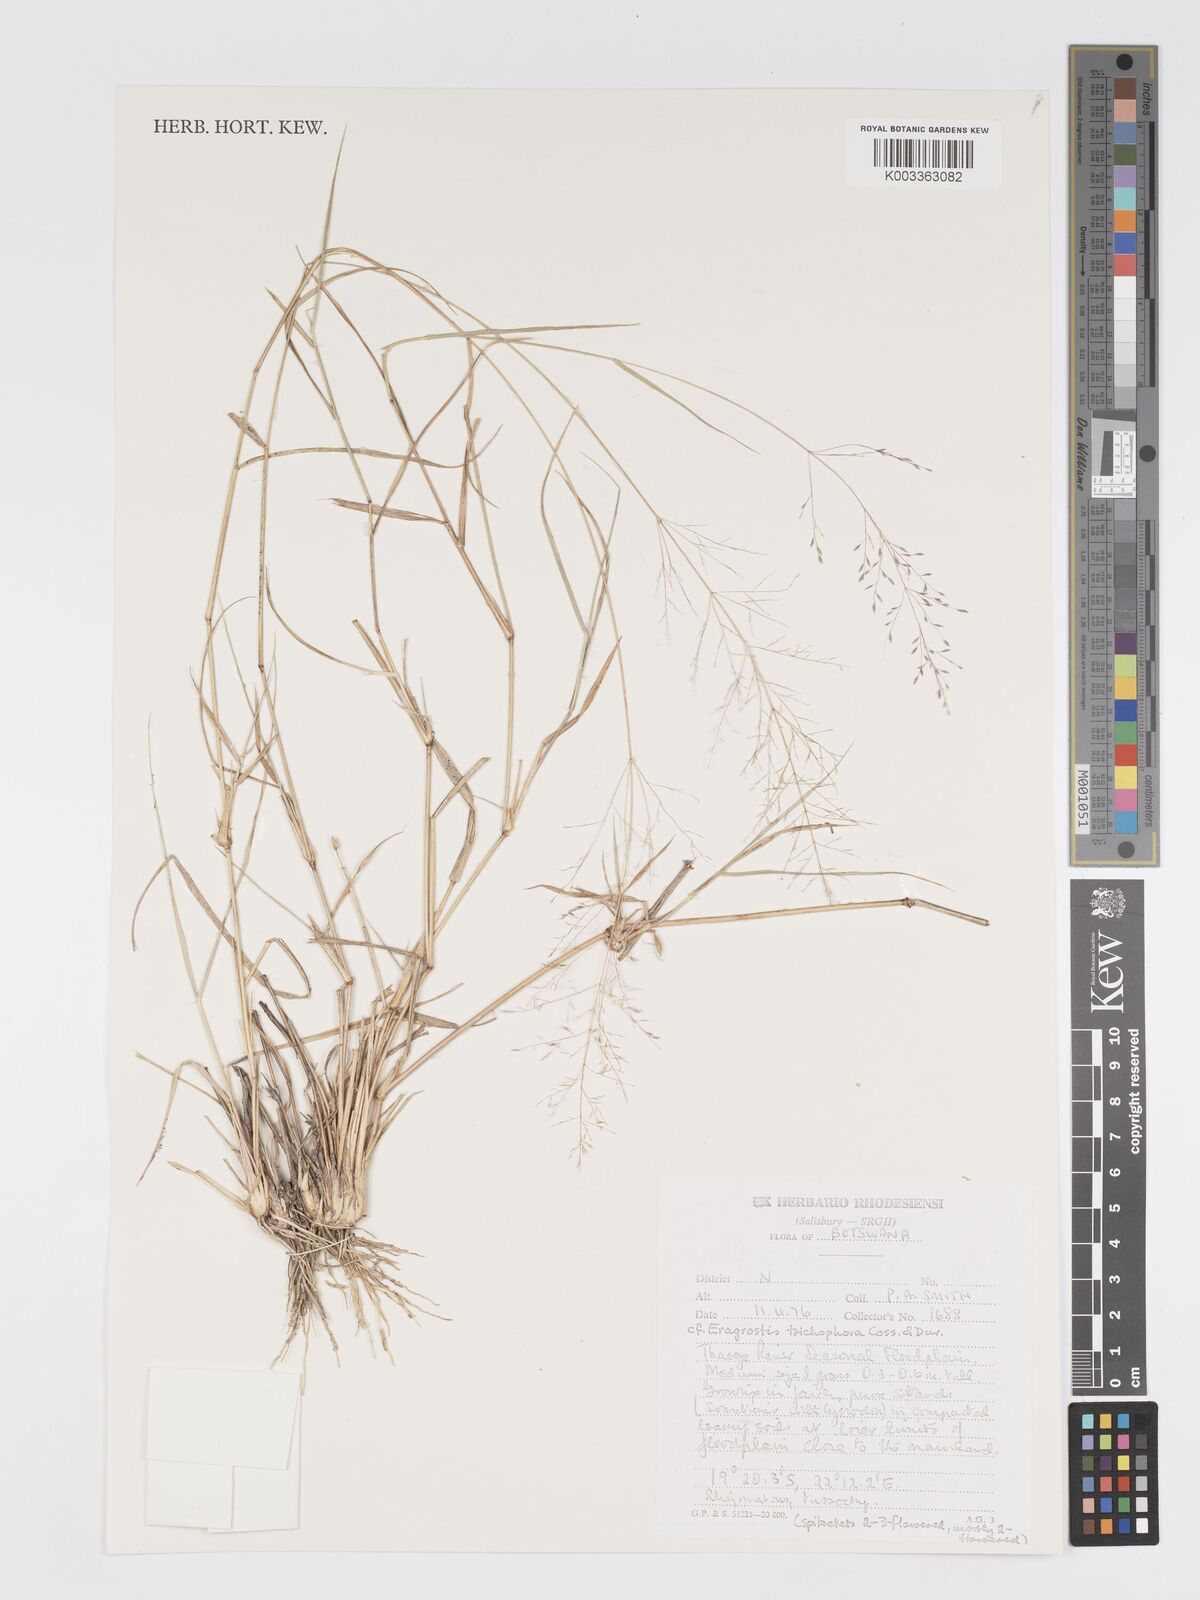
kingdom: Plantae
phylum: Tracheophyta
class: Liliopsida
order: Poales
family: Poaceae
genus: Eragrostis
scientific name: Eragrostis cylindriflora
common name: Cylinderflower lovegrass
